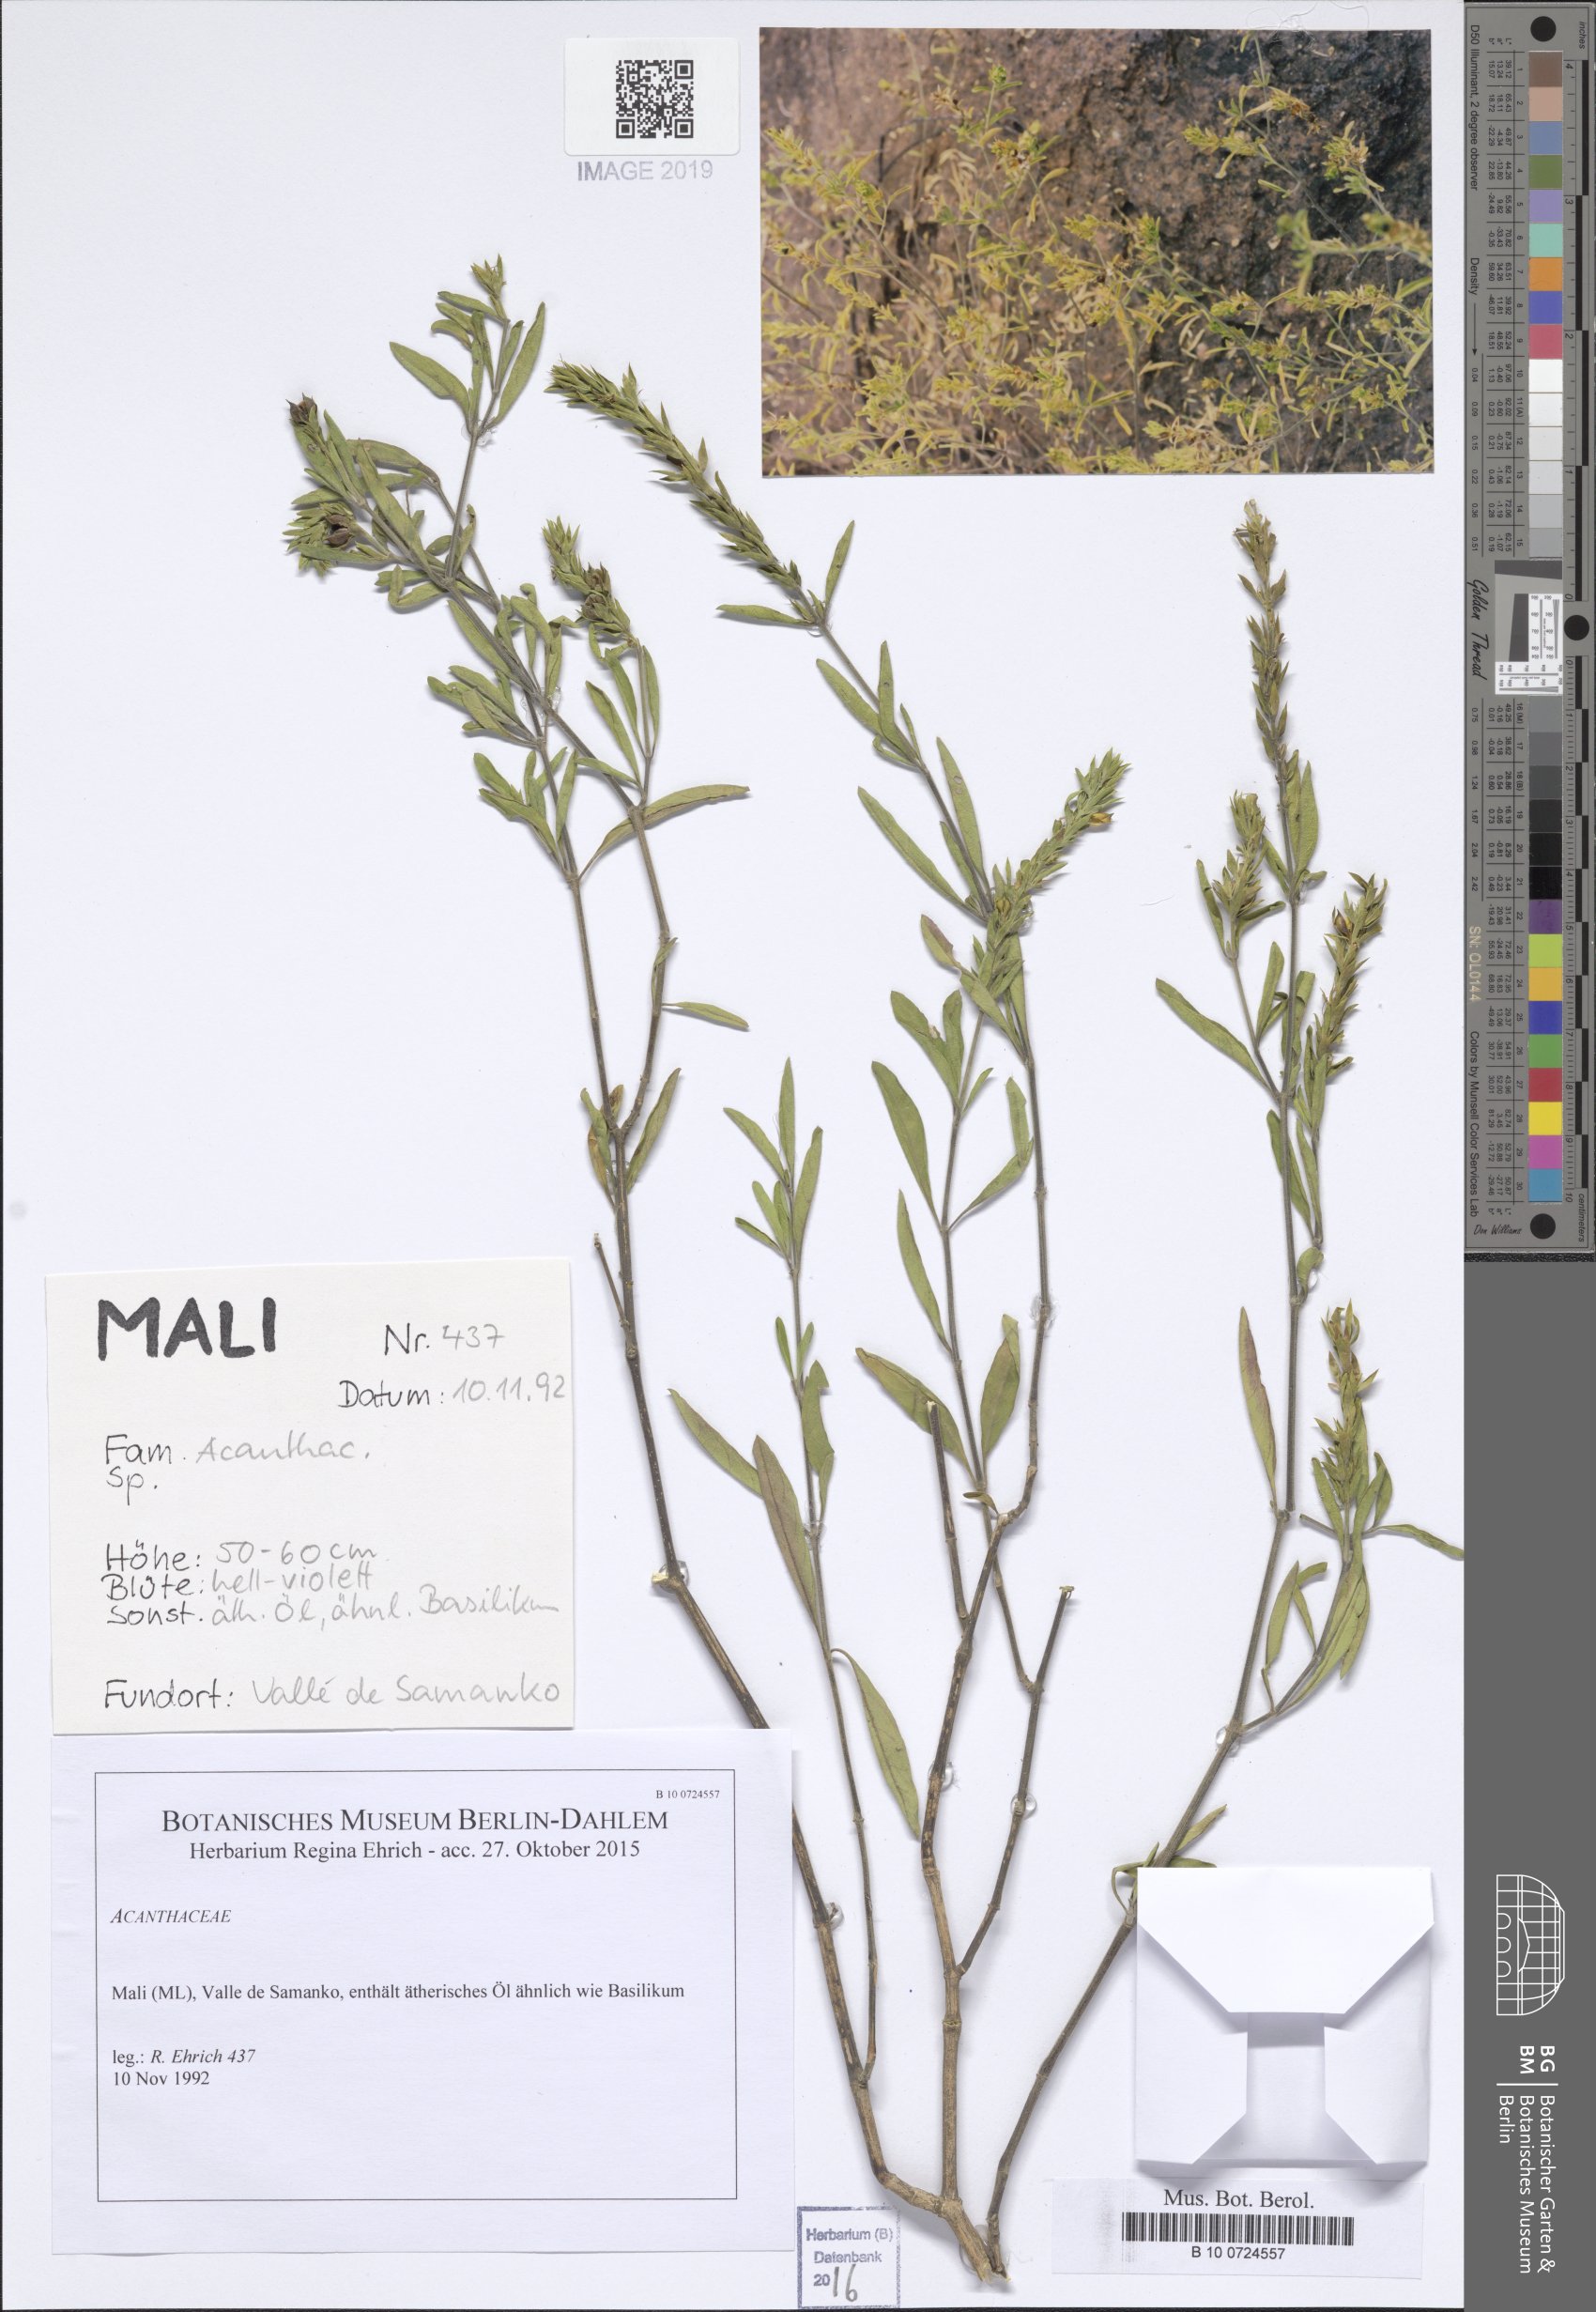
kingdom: Plantae
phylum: Tracheophyta
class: Magnoliopsida
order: Lamiales
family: Acanthaceae
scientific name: Acanthaceae
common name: Acanthaceae
